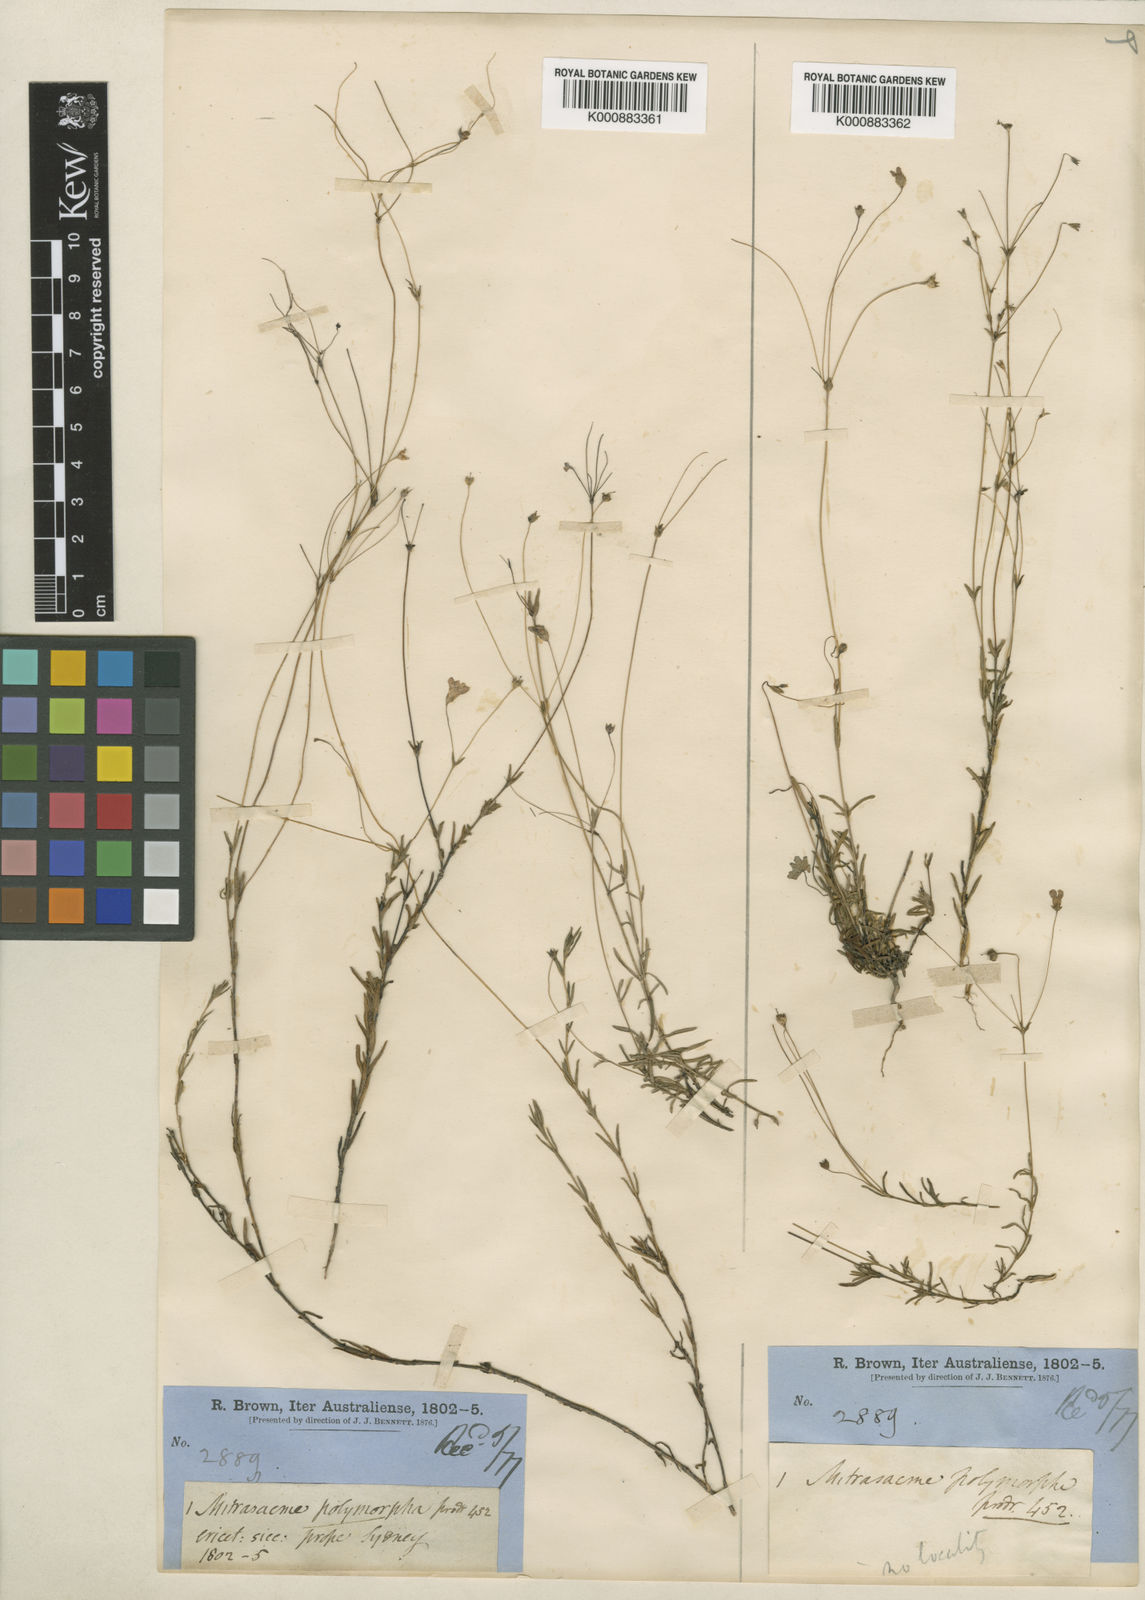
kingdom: Plantae
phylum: Tracheophyta
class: Magnoliopsida
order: Gentianales
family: Loganiaceae
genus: Mitrasacme
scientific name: Mitrasacme polymorpha
